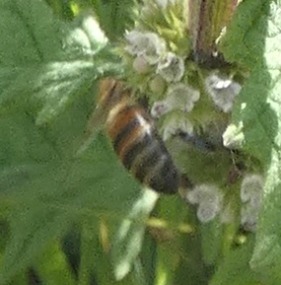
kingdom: Animalia
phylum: Arthropoda
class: Insecta
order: Hymenoptera
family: Apidae
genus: Apis
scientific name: Apis mellifera
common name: Honningbi
